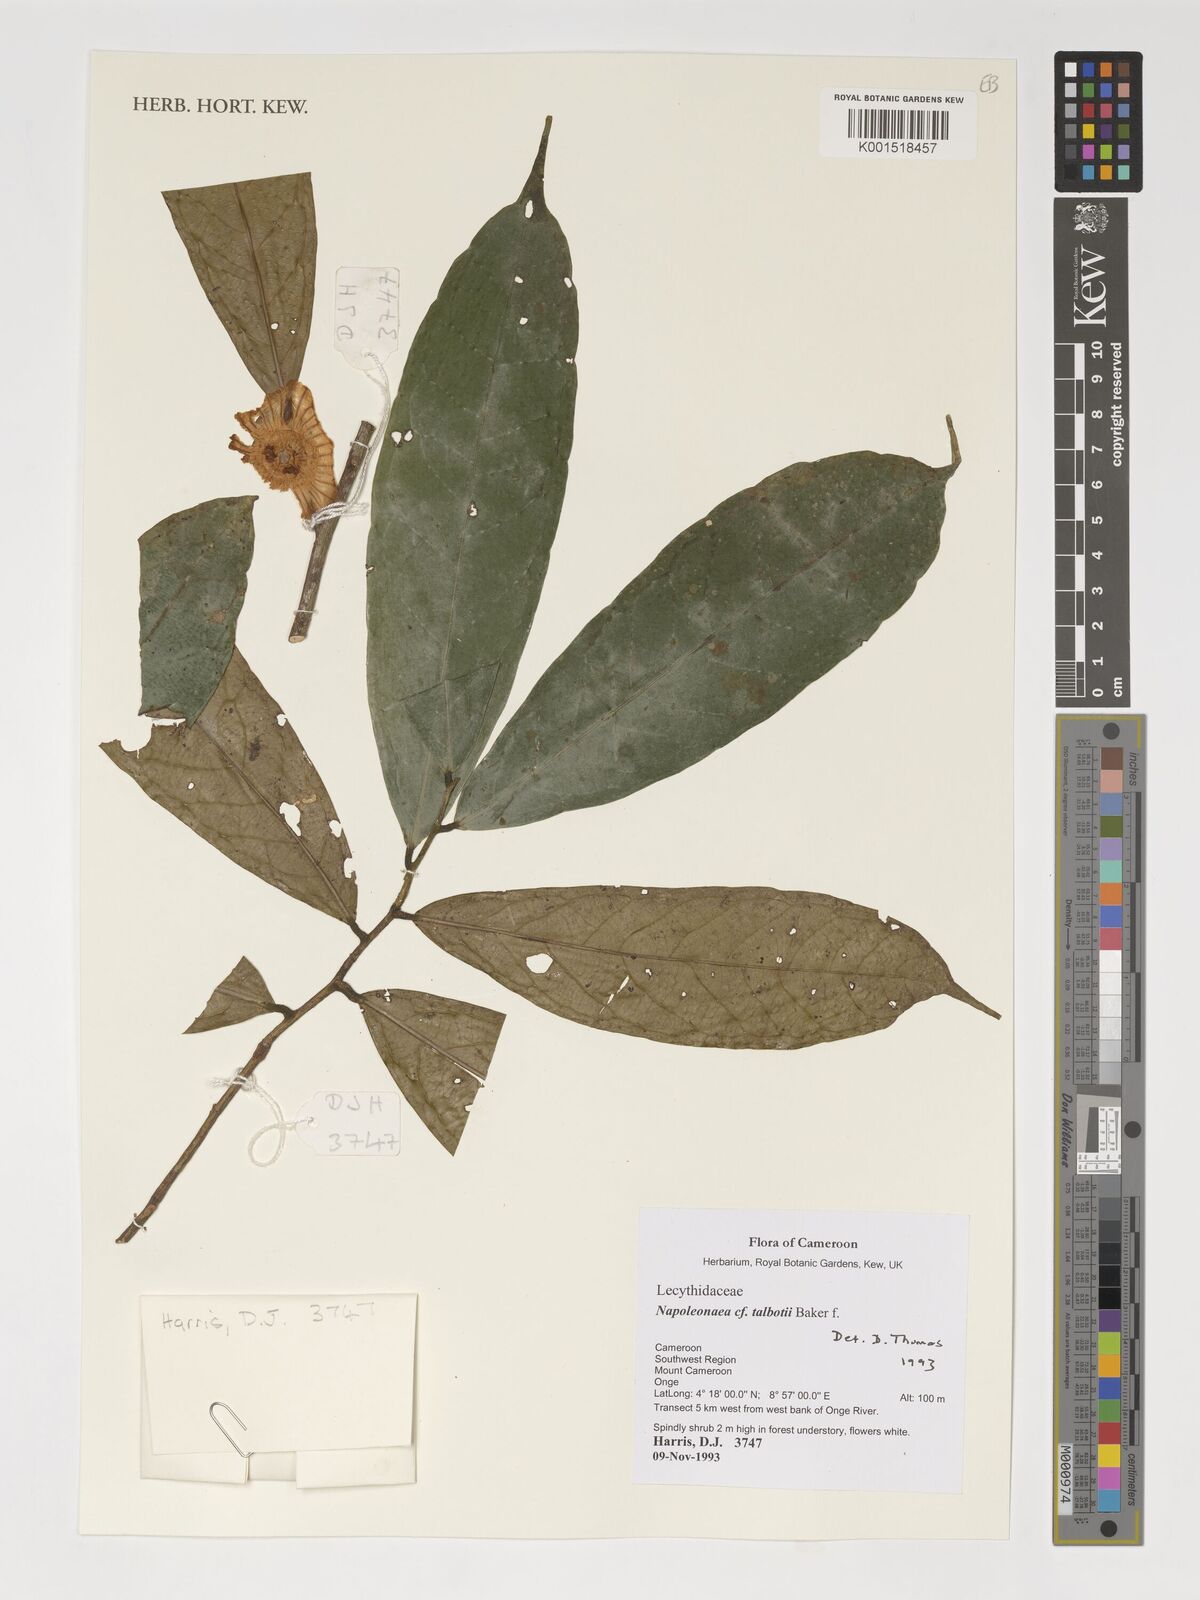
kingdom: Plantae
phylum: Tracheophyta
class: Magnoliopsida
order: Ericales
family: Lecythidaceae
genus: Napoleonaea
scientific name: Napoleonaea talbotii
